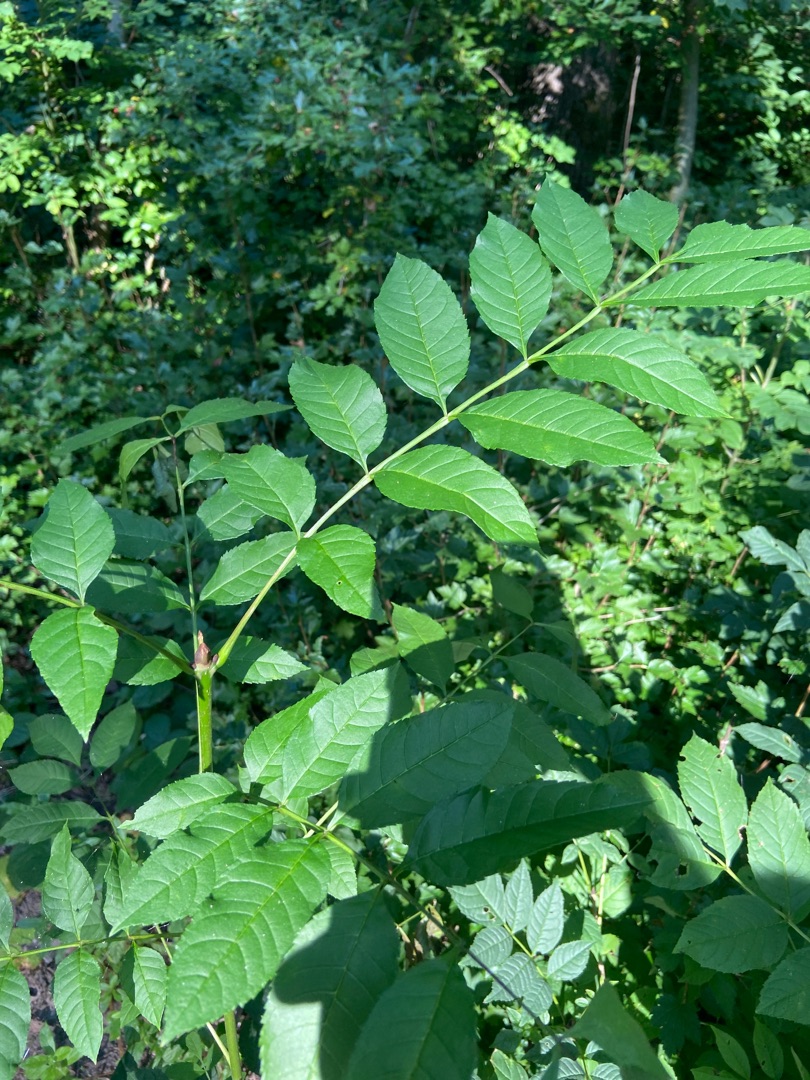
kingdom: Plantae
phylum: Tracheophyta
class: Magnoliopsida
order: Lamiales
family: Oleaceae
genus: Fraxinus
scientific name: Fraxinus excelsior
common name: Ask
